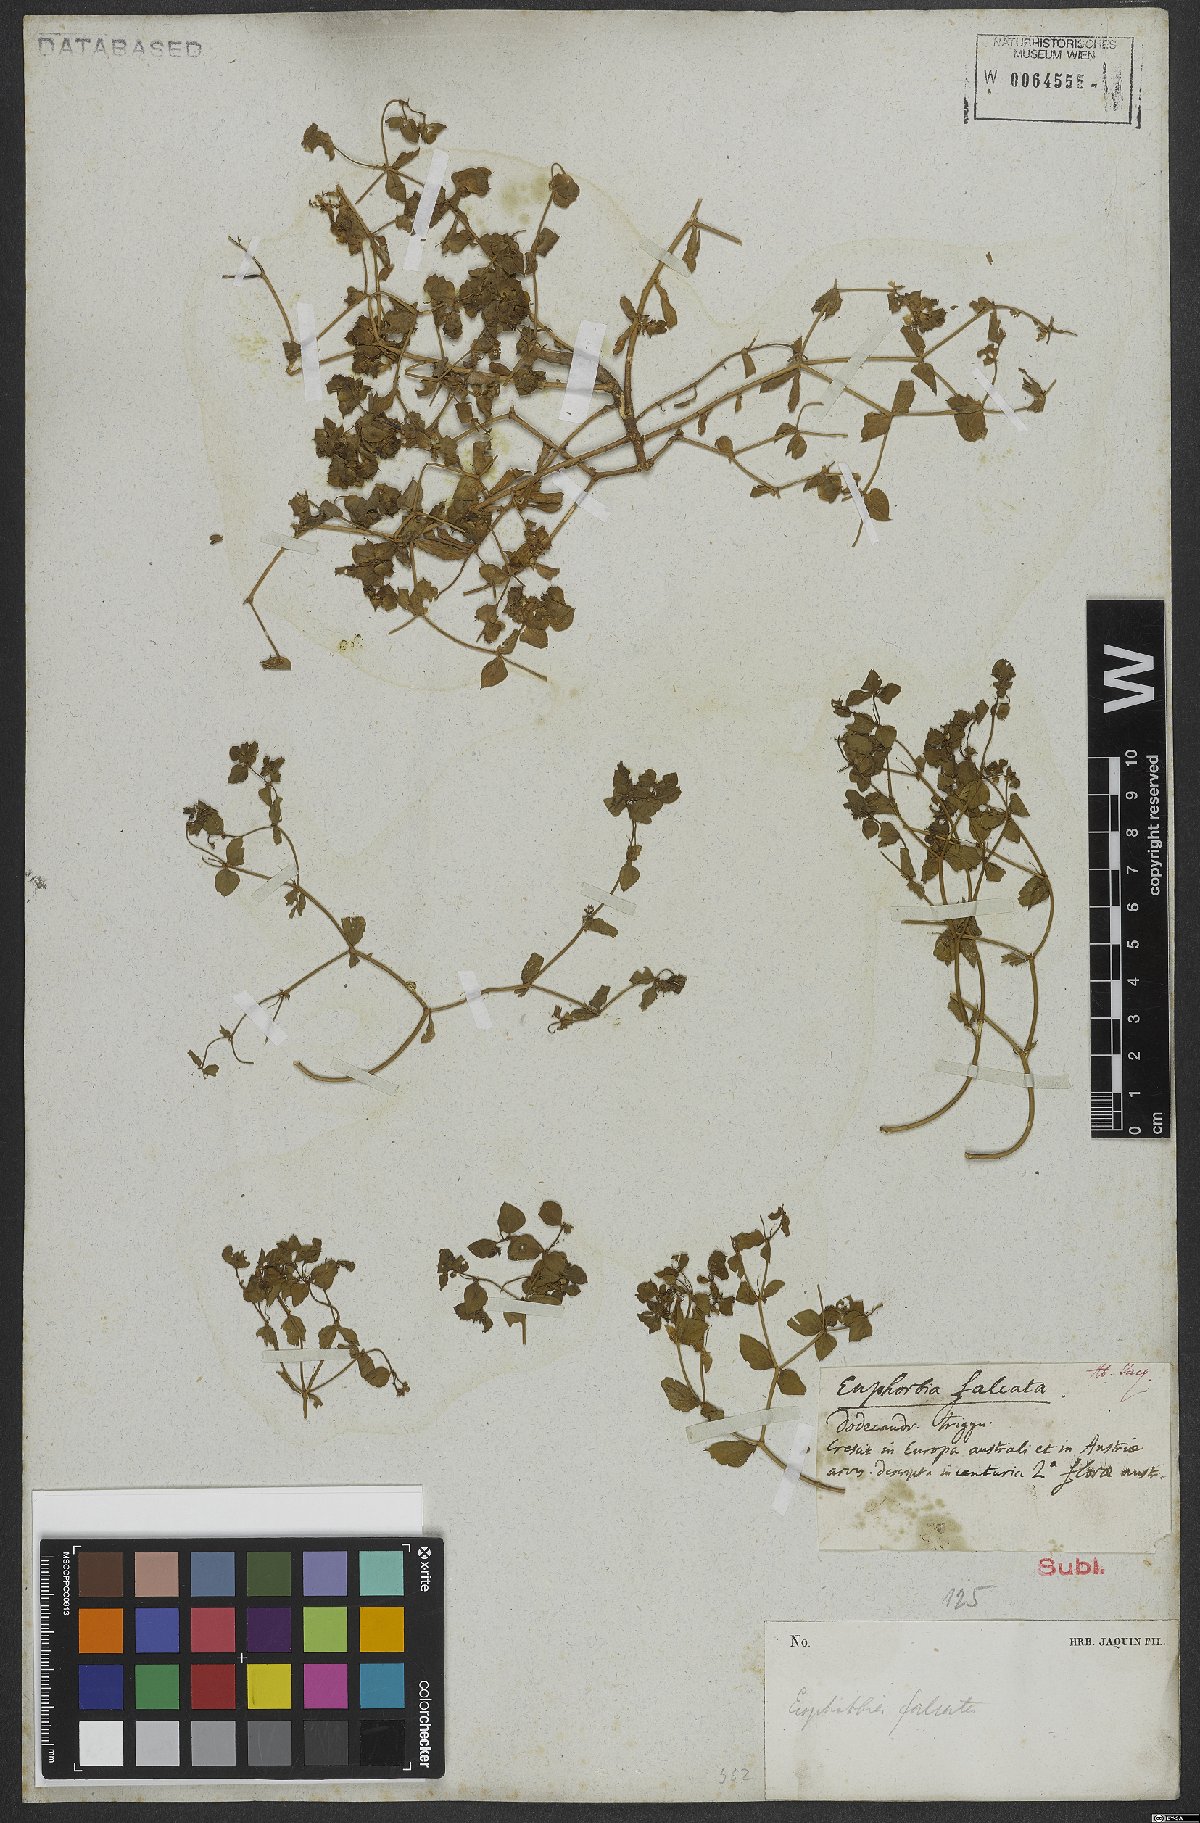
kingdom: Plantae
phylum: Tracheophyta
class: Magnoliopsida
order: Malpighiales
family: Euphorbiaceae
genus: Euphorbia
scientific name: Euphorbia falcata
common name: Sickle spurge
